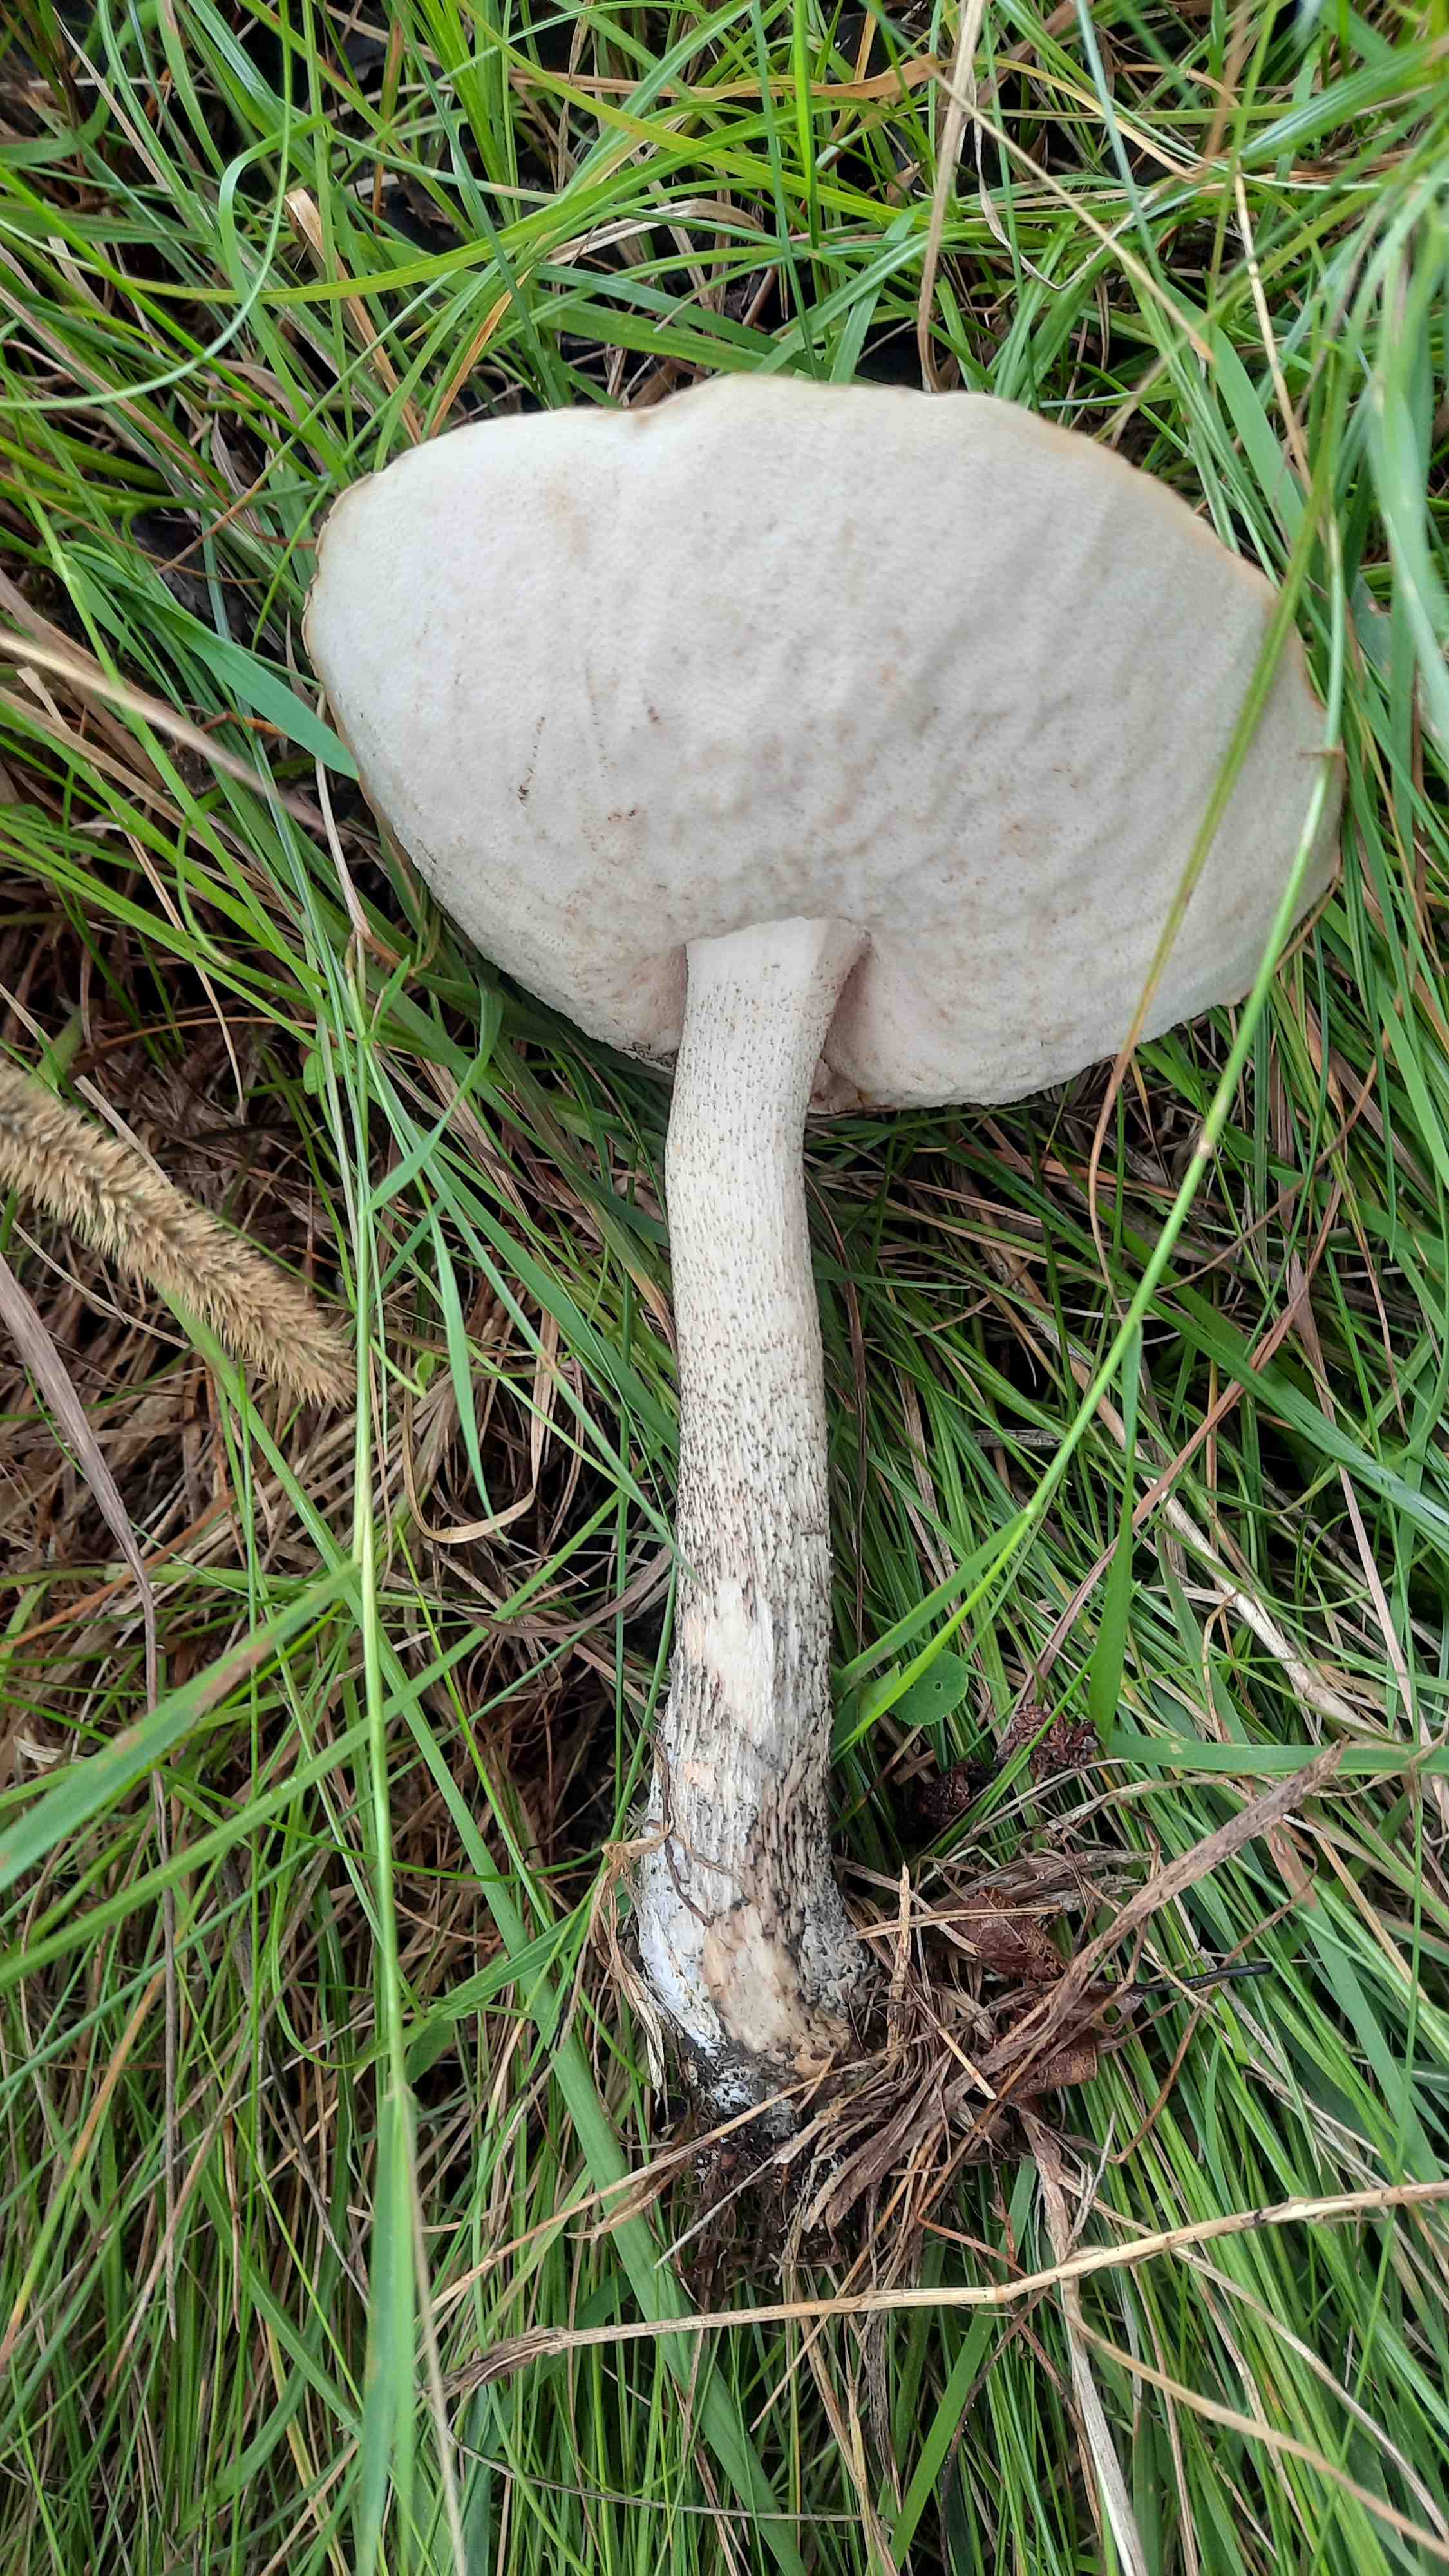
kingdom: Fungi
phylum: Basidiomycota
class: Agaricomycetes
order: Boletales
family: Boletaceae
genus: Leccinum
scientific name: Leccinum scabrum
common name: brun skælrørhat
